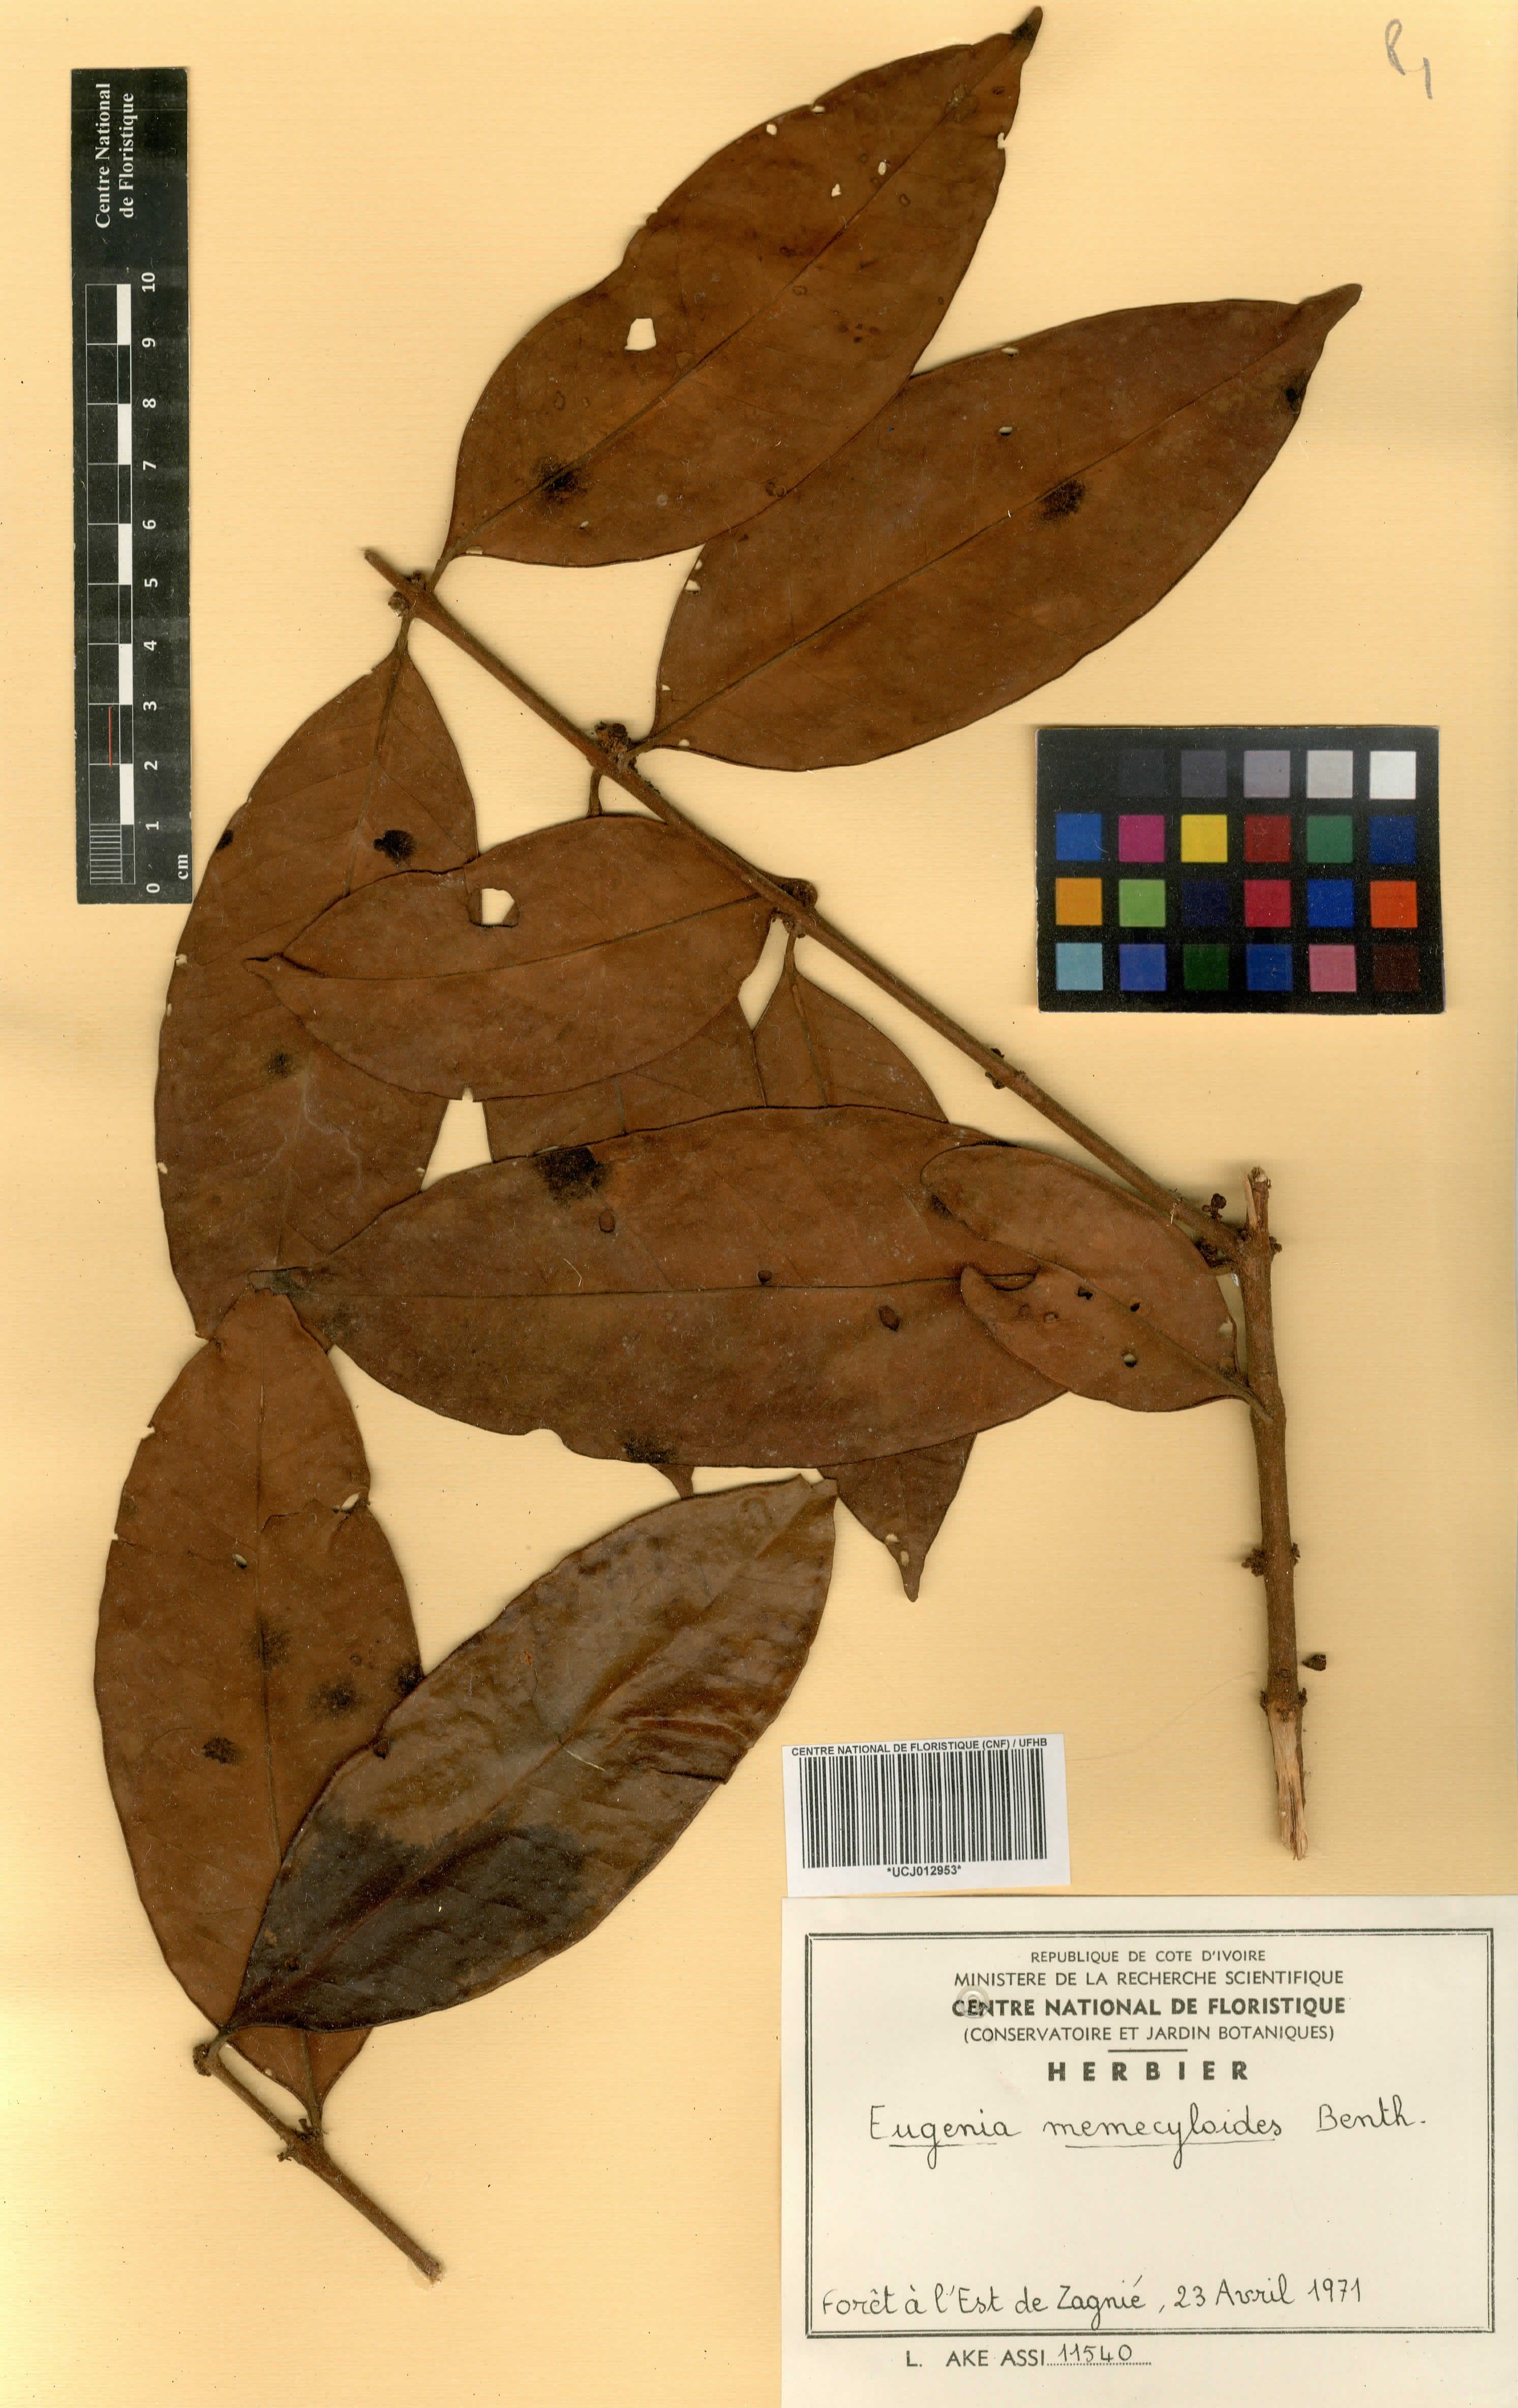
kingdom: Plantae
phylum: Tracheophyta
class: Magnoliopsida
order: Myrtales
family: Myrtaceae
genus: Eugenia
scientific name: Eugenia memecyloides
